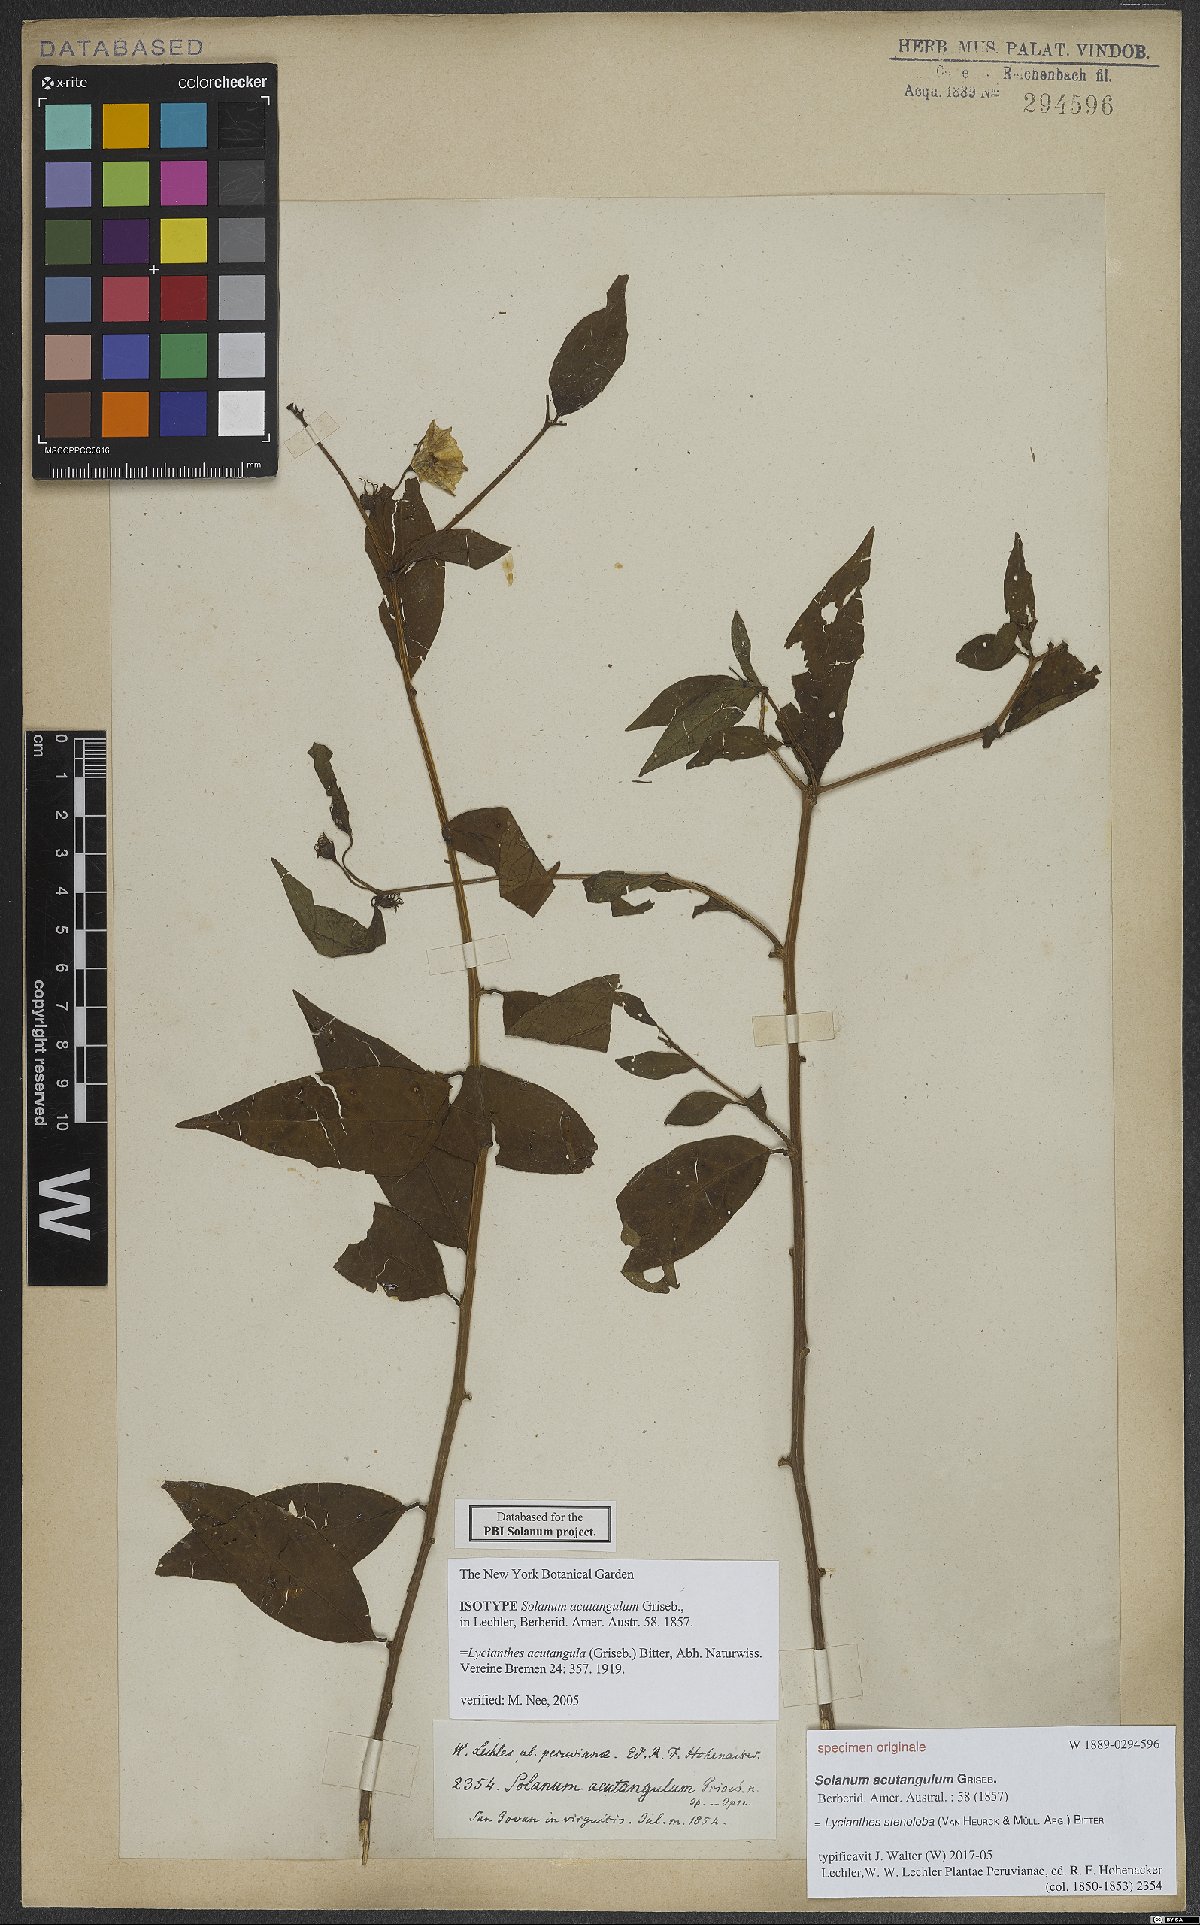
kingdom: Plantae
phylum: Tracheophyta
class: Magnoliopsida
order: Solanales
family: Solanaceae
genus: Lycianthes
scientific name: Lycianthes stenoloba
